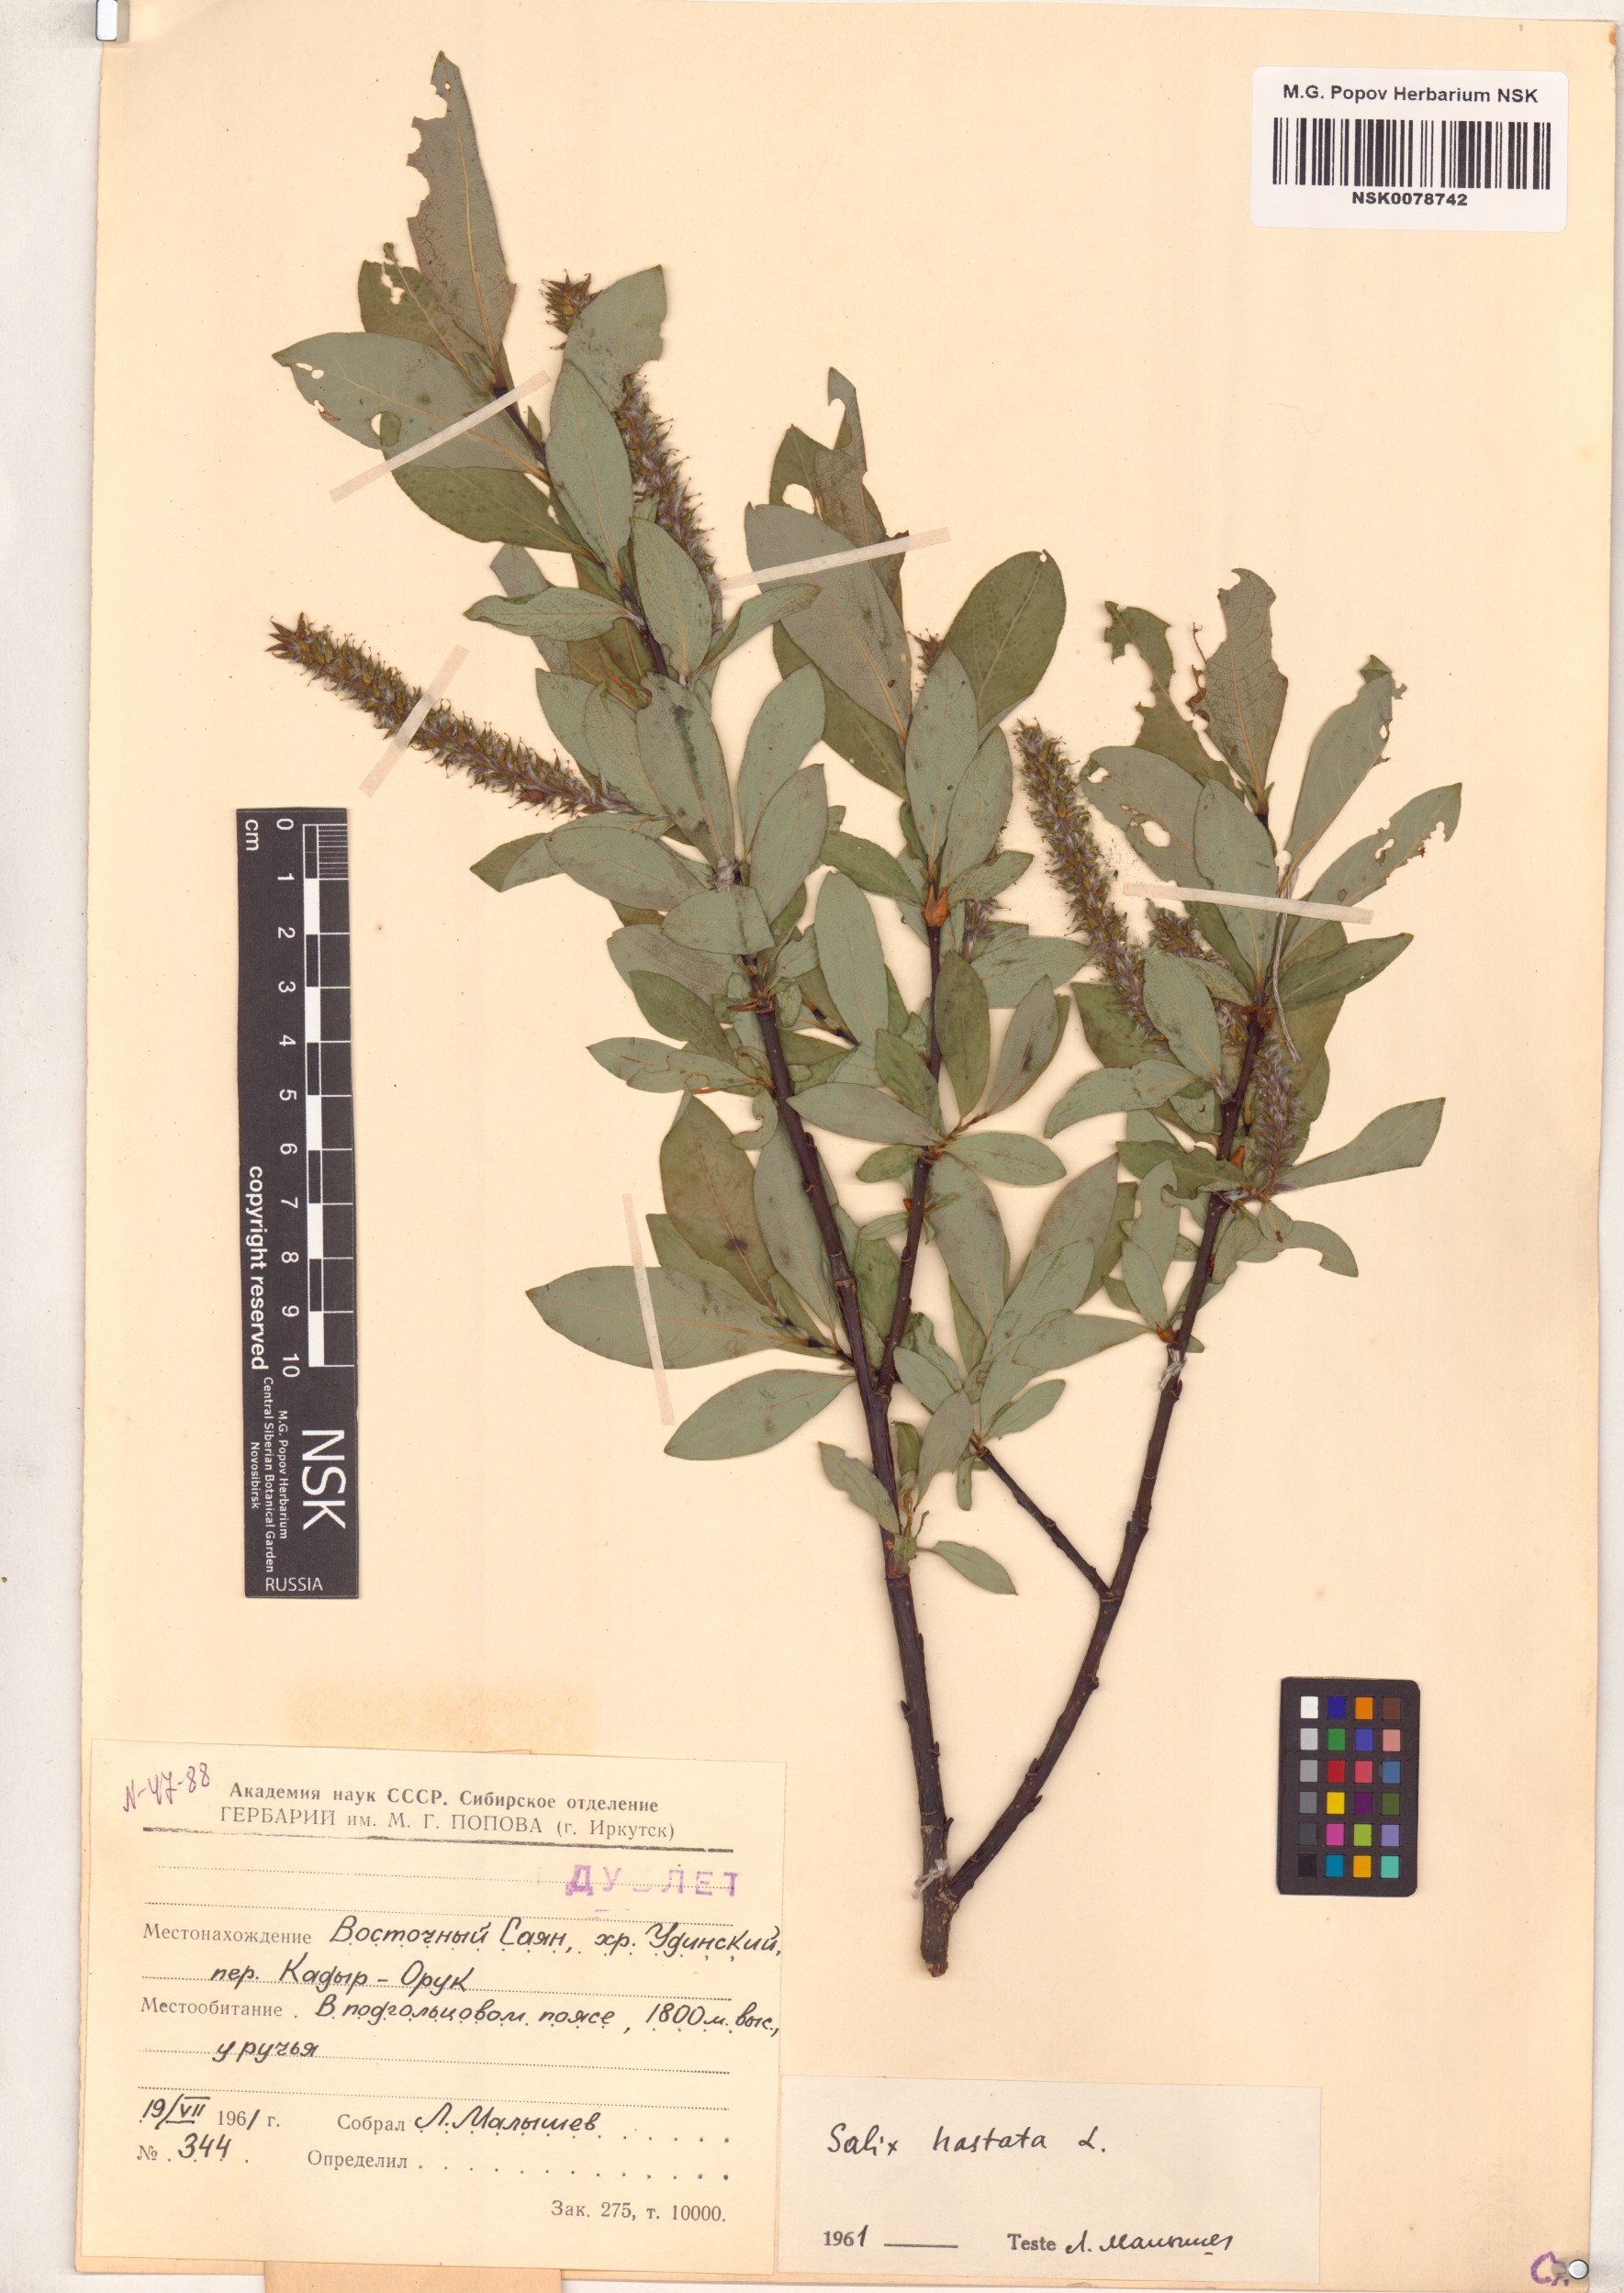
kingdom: Plantae
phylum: Tracheophyta
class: Magnoliopsida
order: Malpighiales
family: Salicaceae
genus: Salix
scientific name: Salix hastata
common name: Halberd willow
